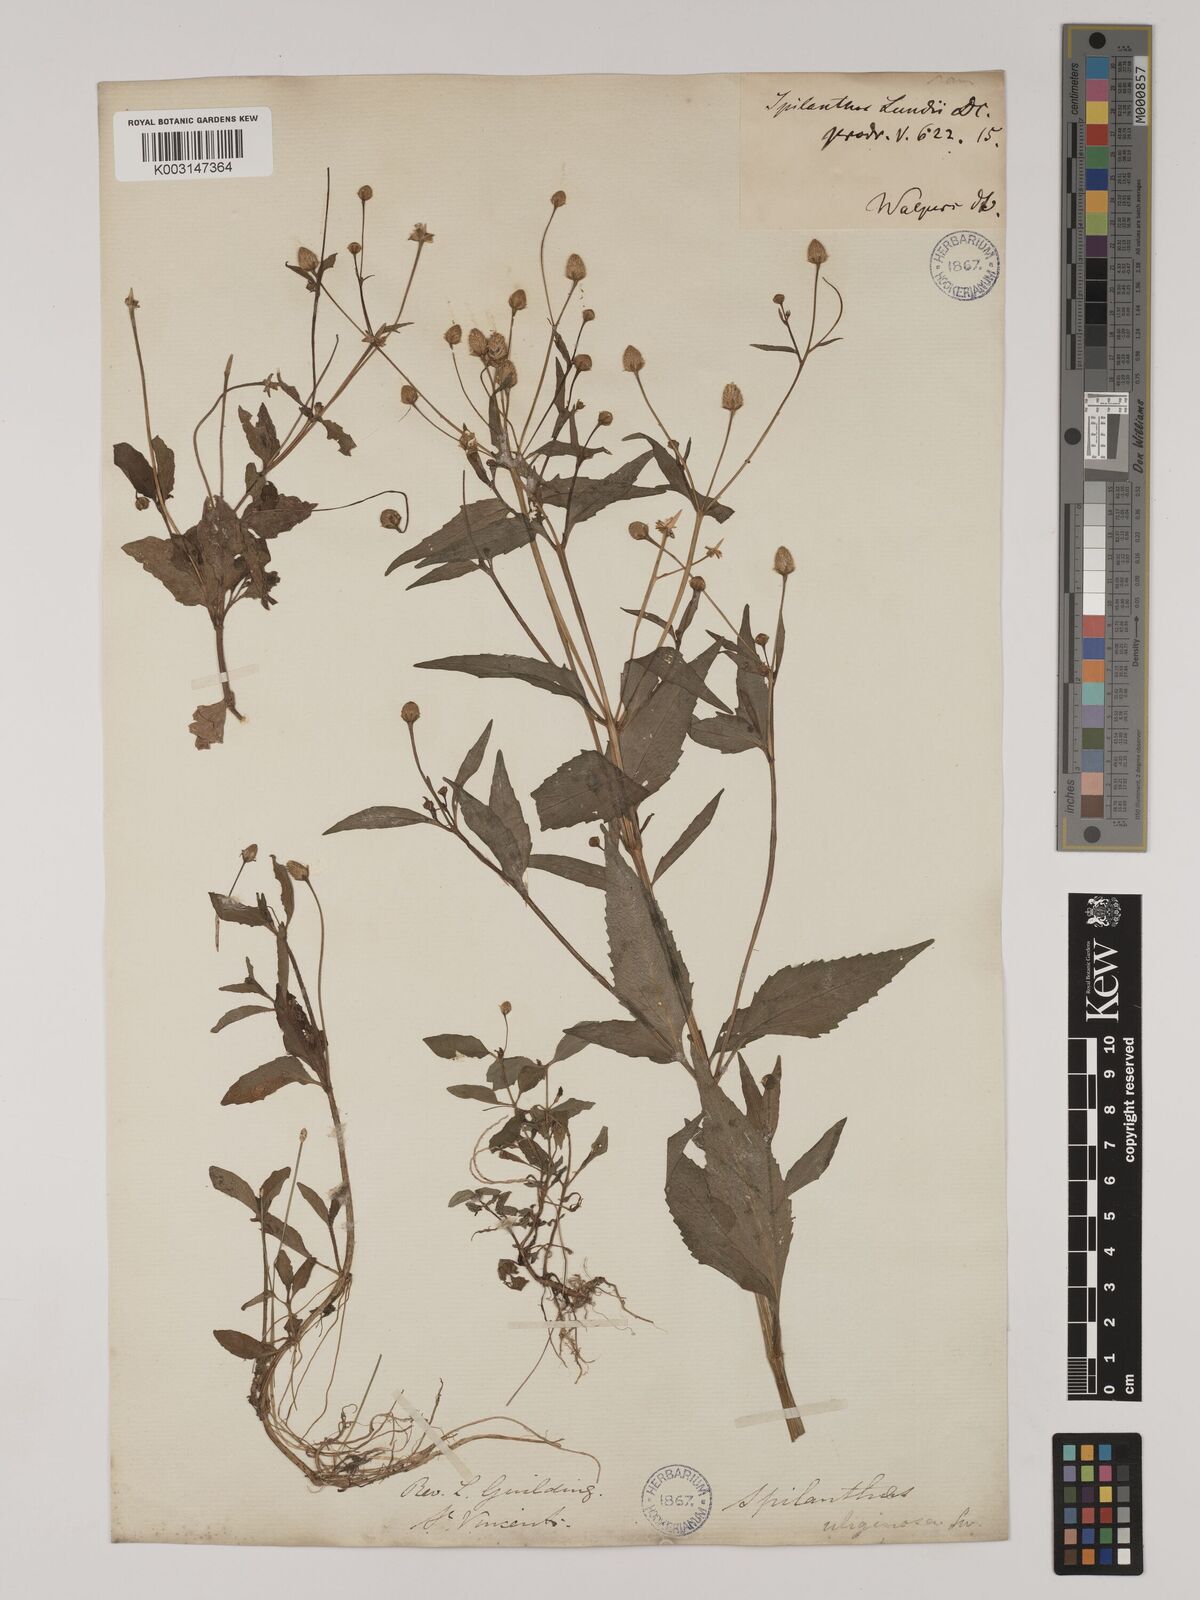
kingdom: Plantae
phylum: Tracheophyta
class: Magnoliopsida
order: Asterales
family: Asteraceae
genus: Acmella
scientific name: Acmella uliginosa
